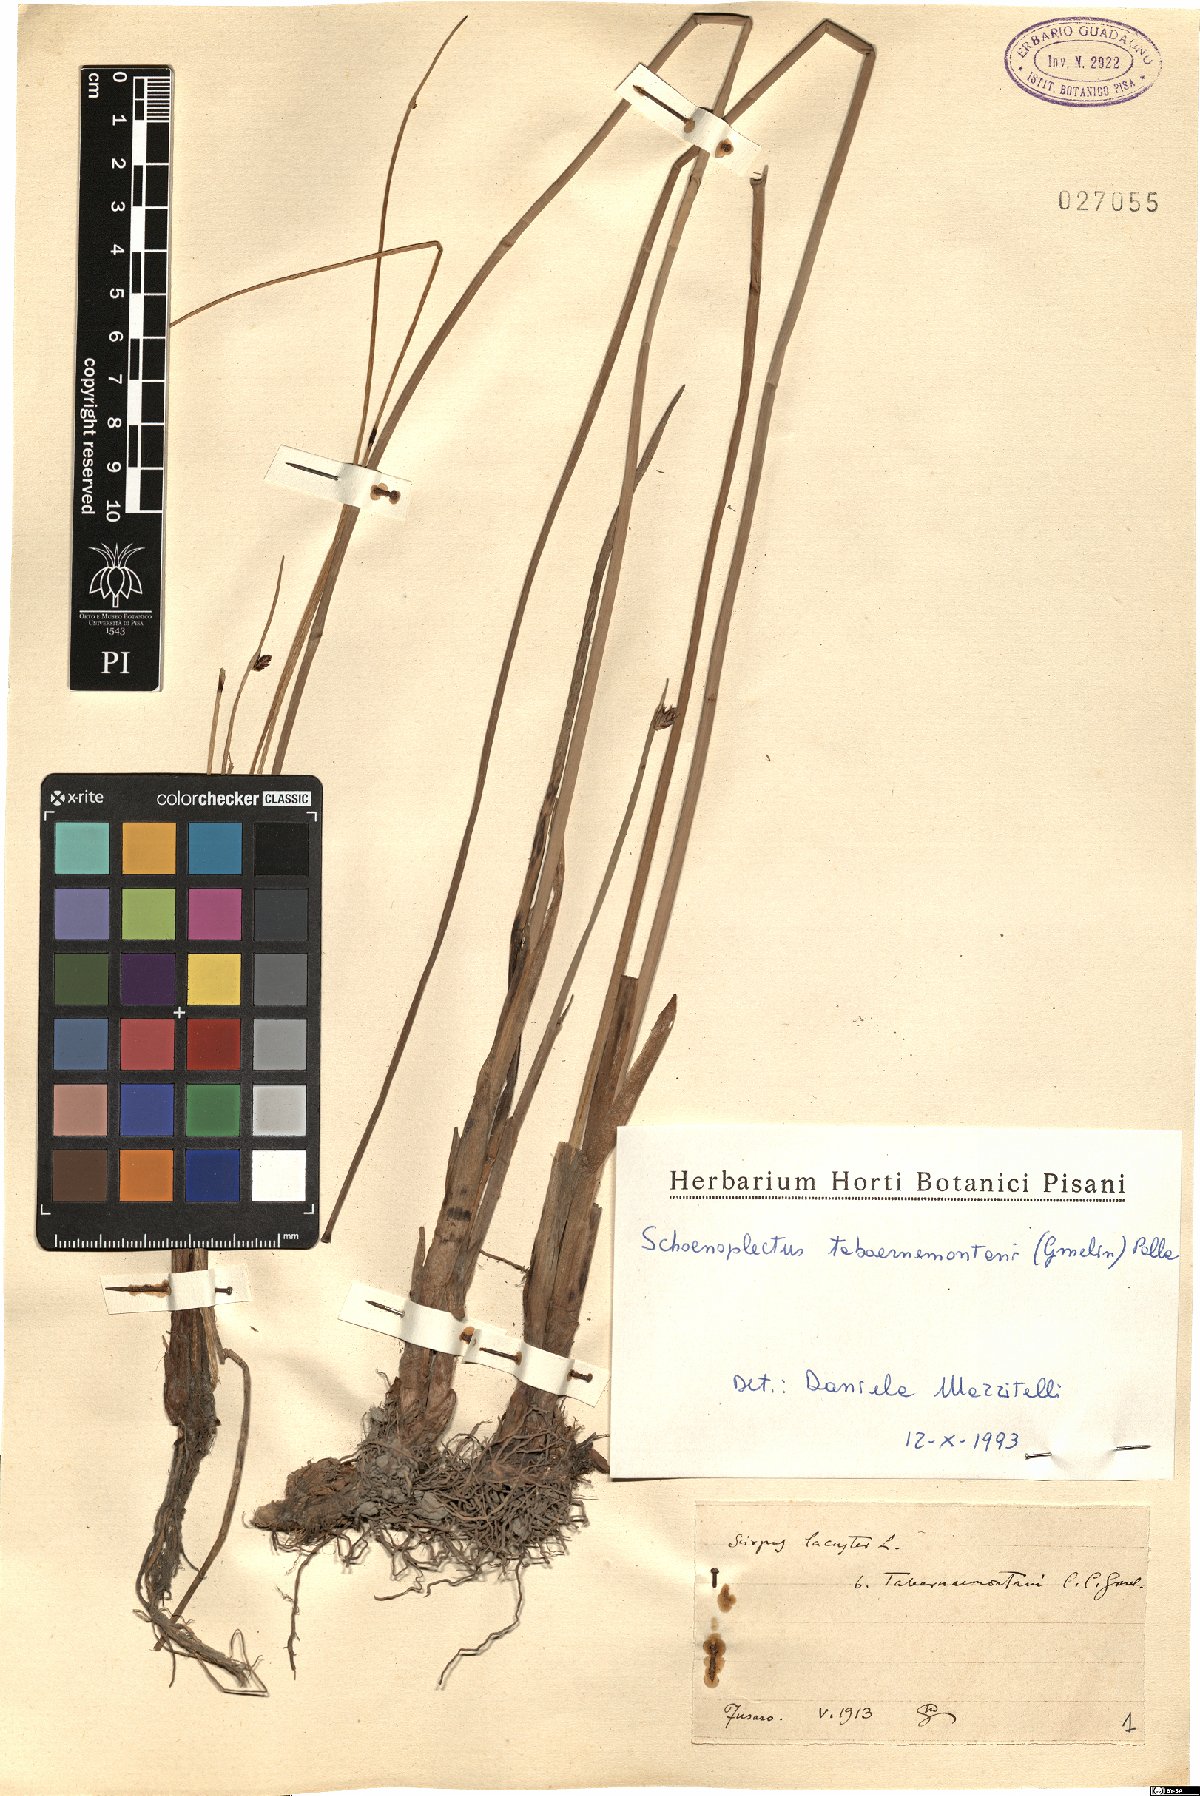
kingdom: Plantae
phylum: Tracheophyta
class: Liliopsida
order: Poales
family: Cyperaceae
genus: Schoenoplectus
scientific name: Schoenoplectus tabernaemontani
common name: Grey club-rush
